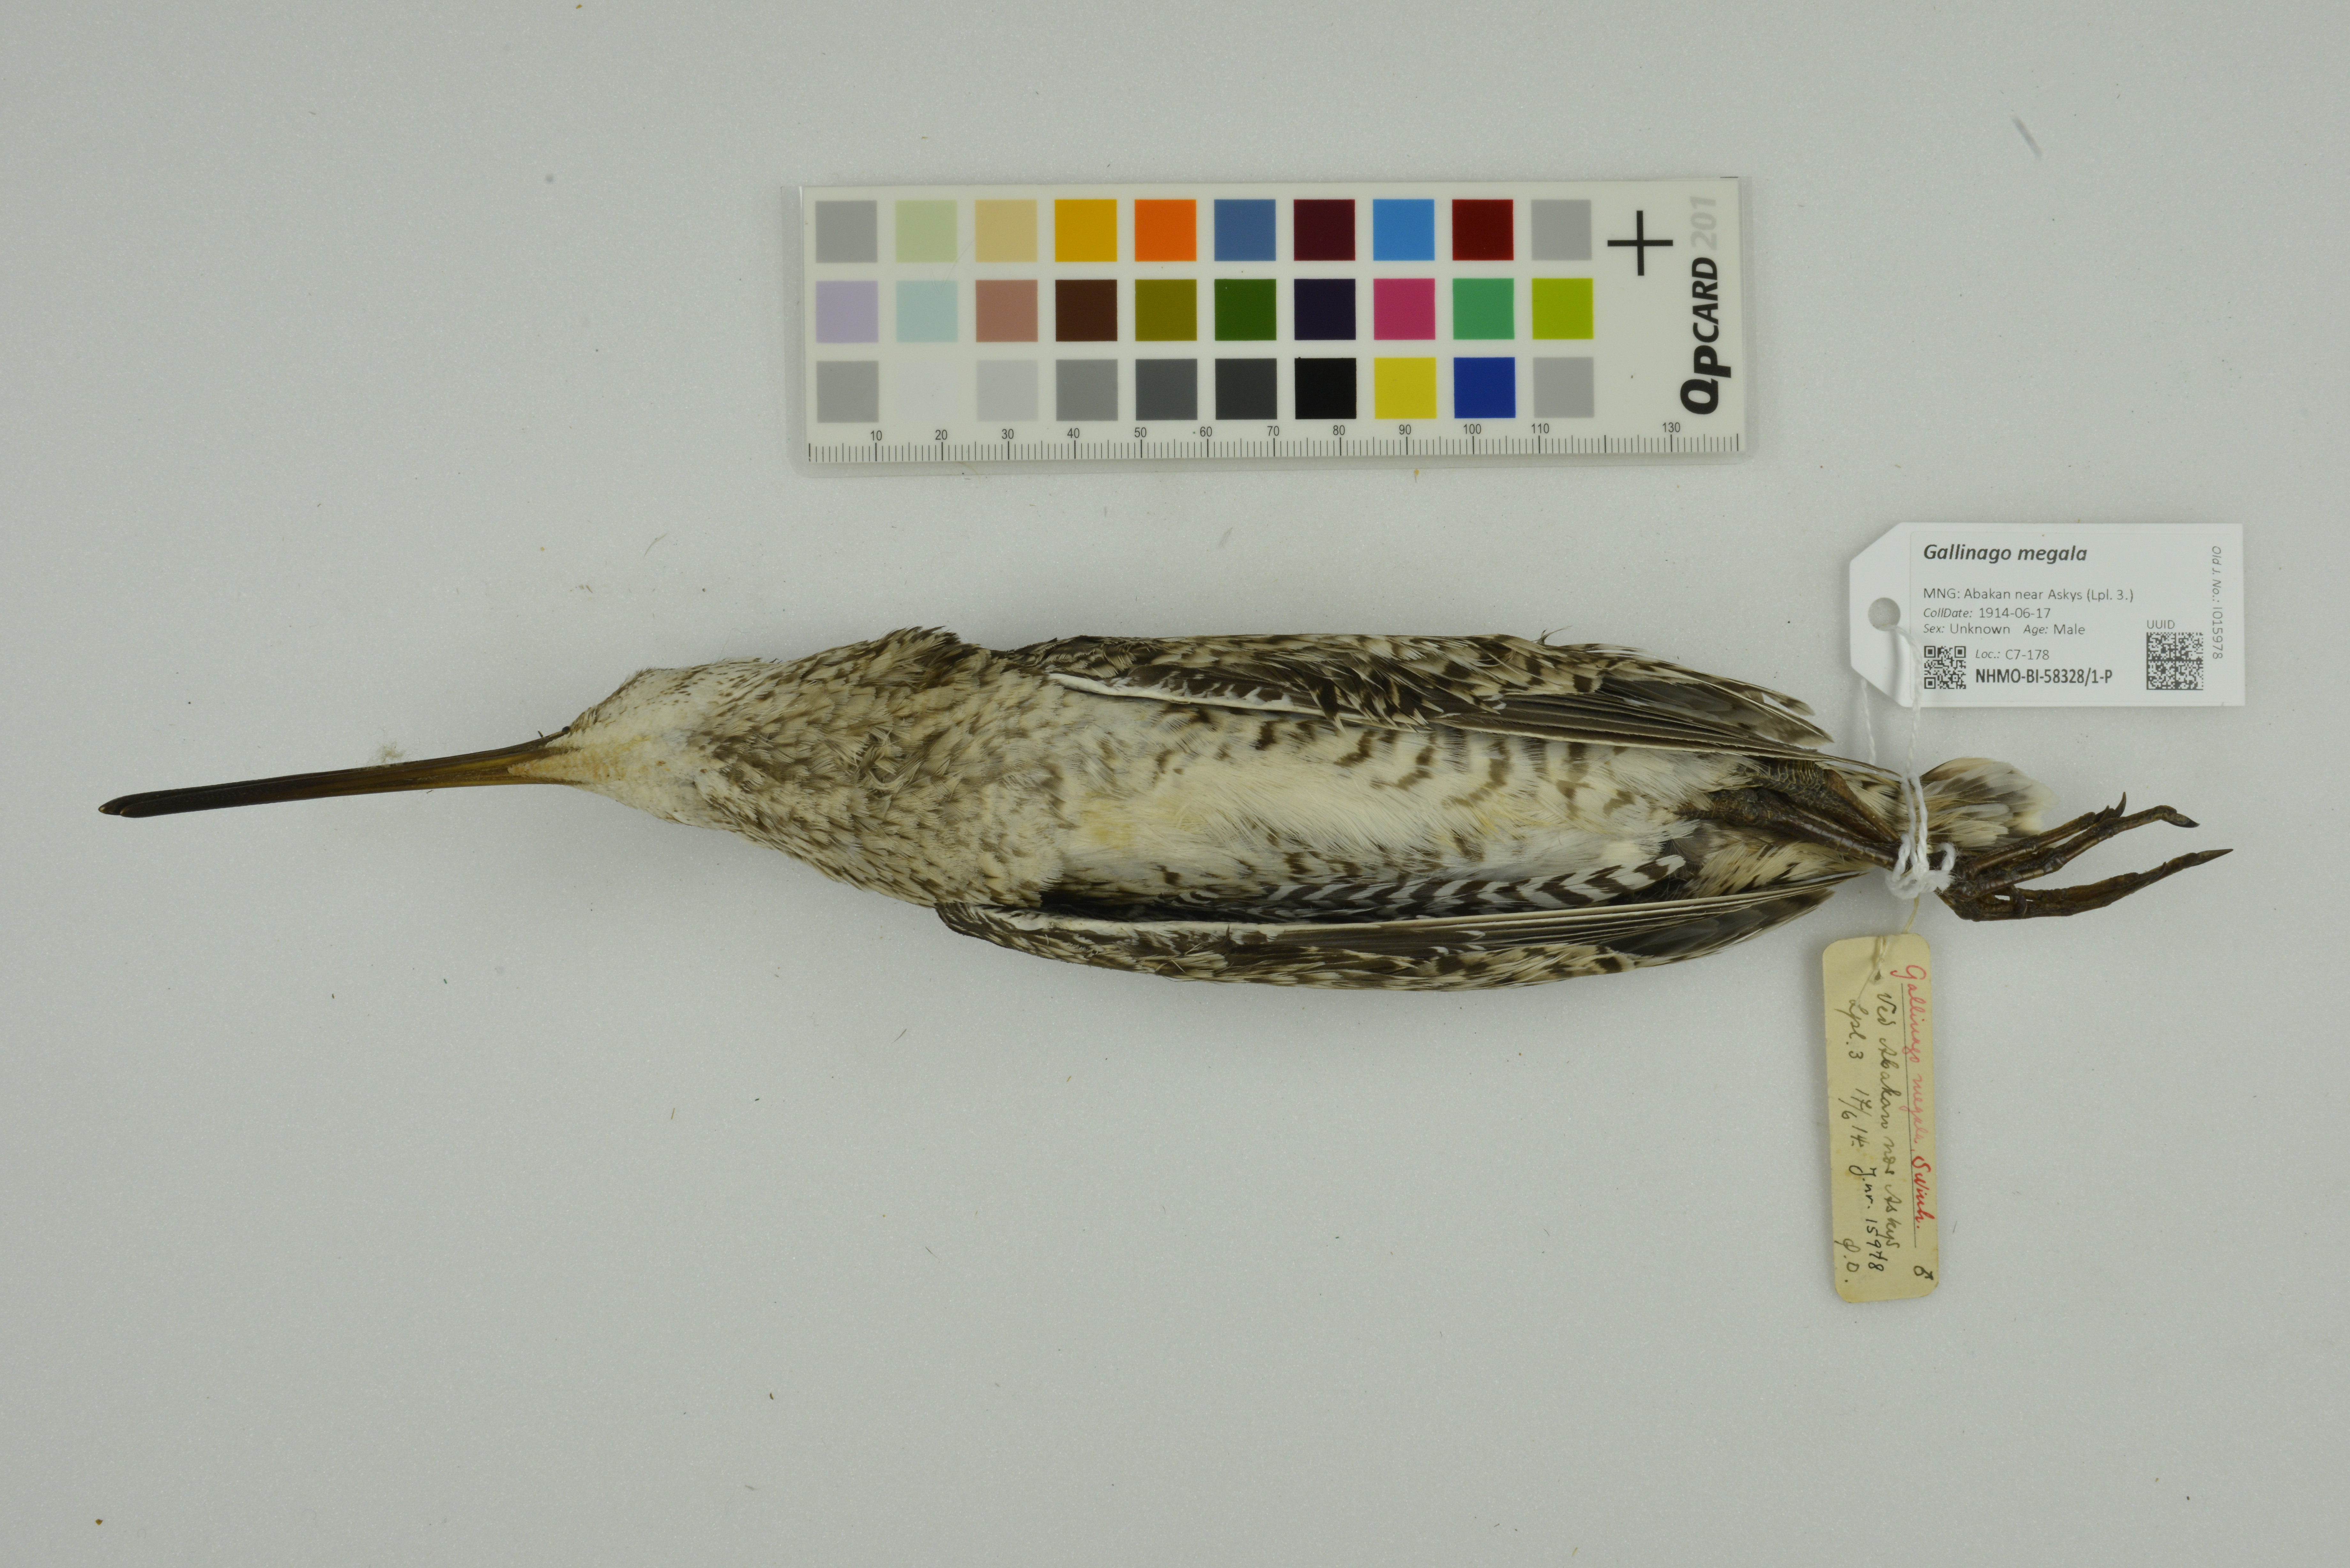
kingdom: Animalia
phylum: Chordata
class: Aves
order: Charadriiformes
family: Scolopacidae
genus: Gallinago
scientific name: Gallinago megala
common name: Swinhoe's snipe
